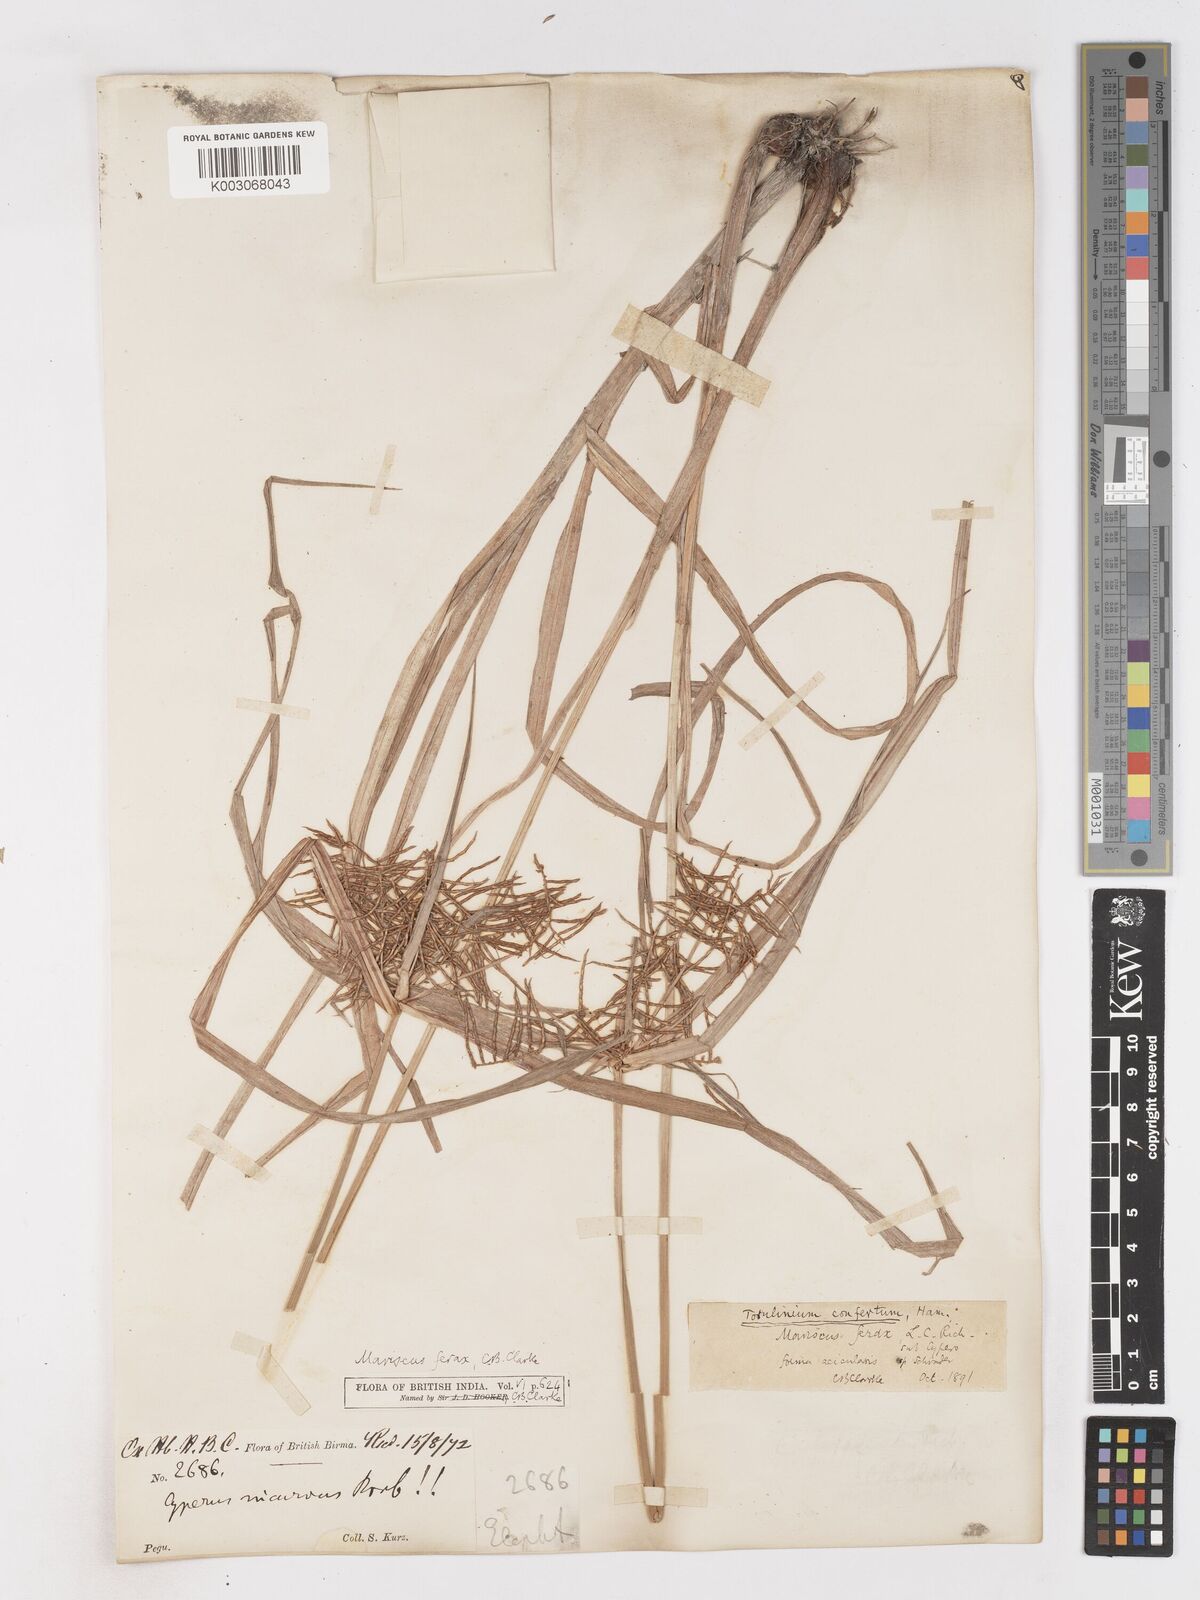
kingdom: Plantae
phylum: Tracheophyta
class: Liliopsida
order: Poales
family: Cyperaceae
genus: Cyperus
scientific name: Cyperus strongii
